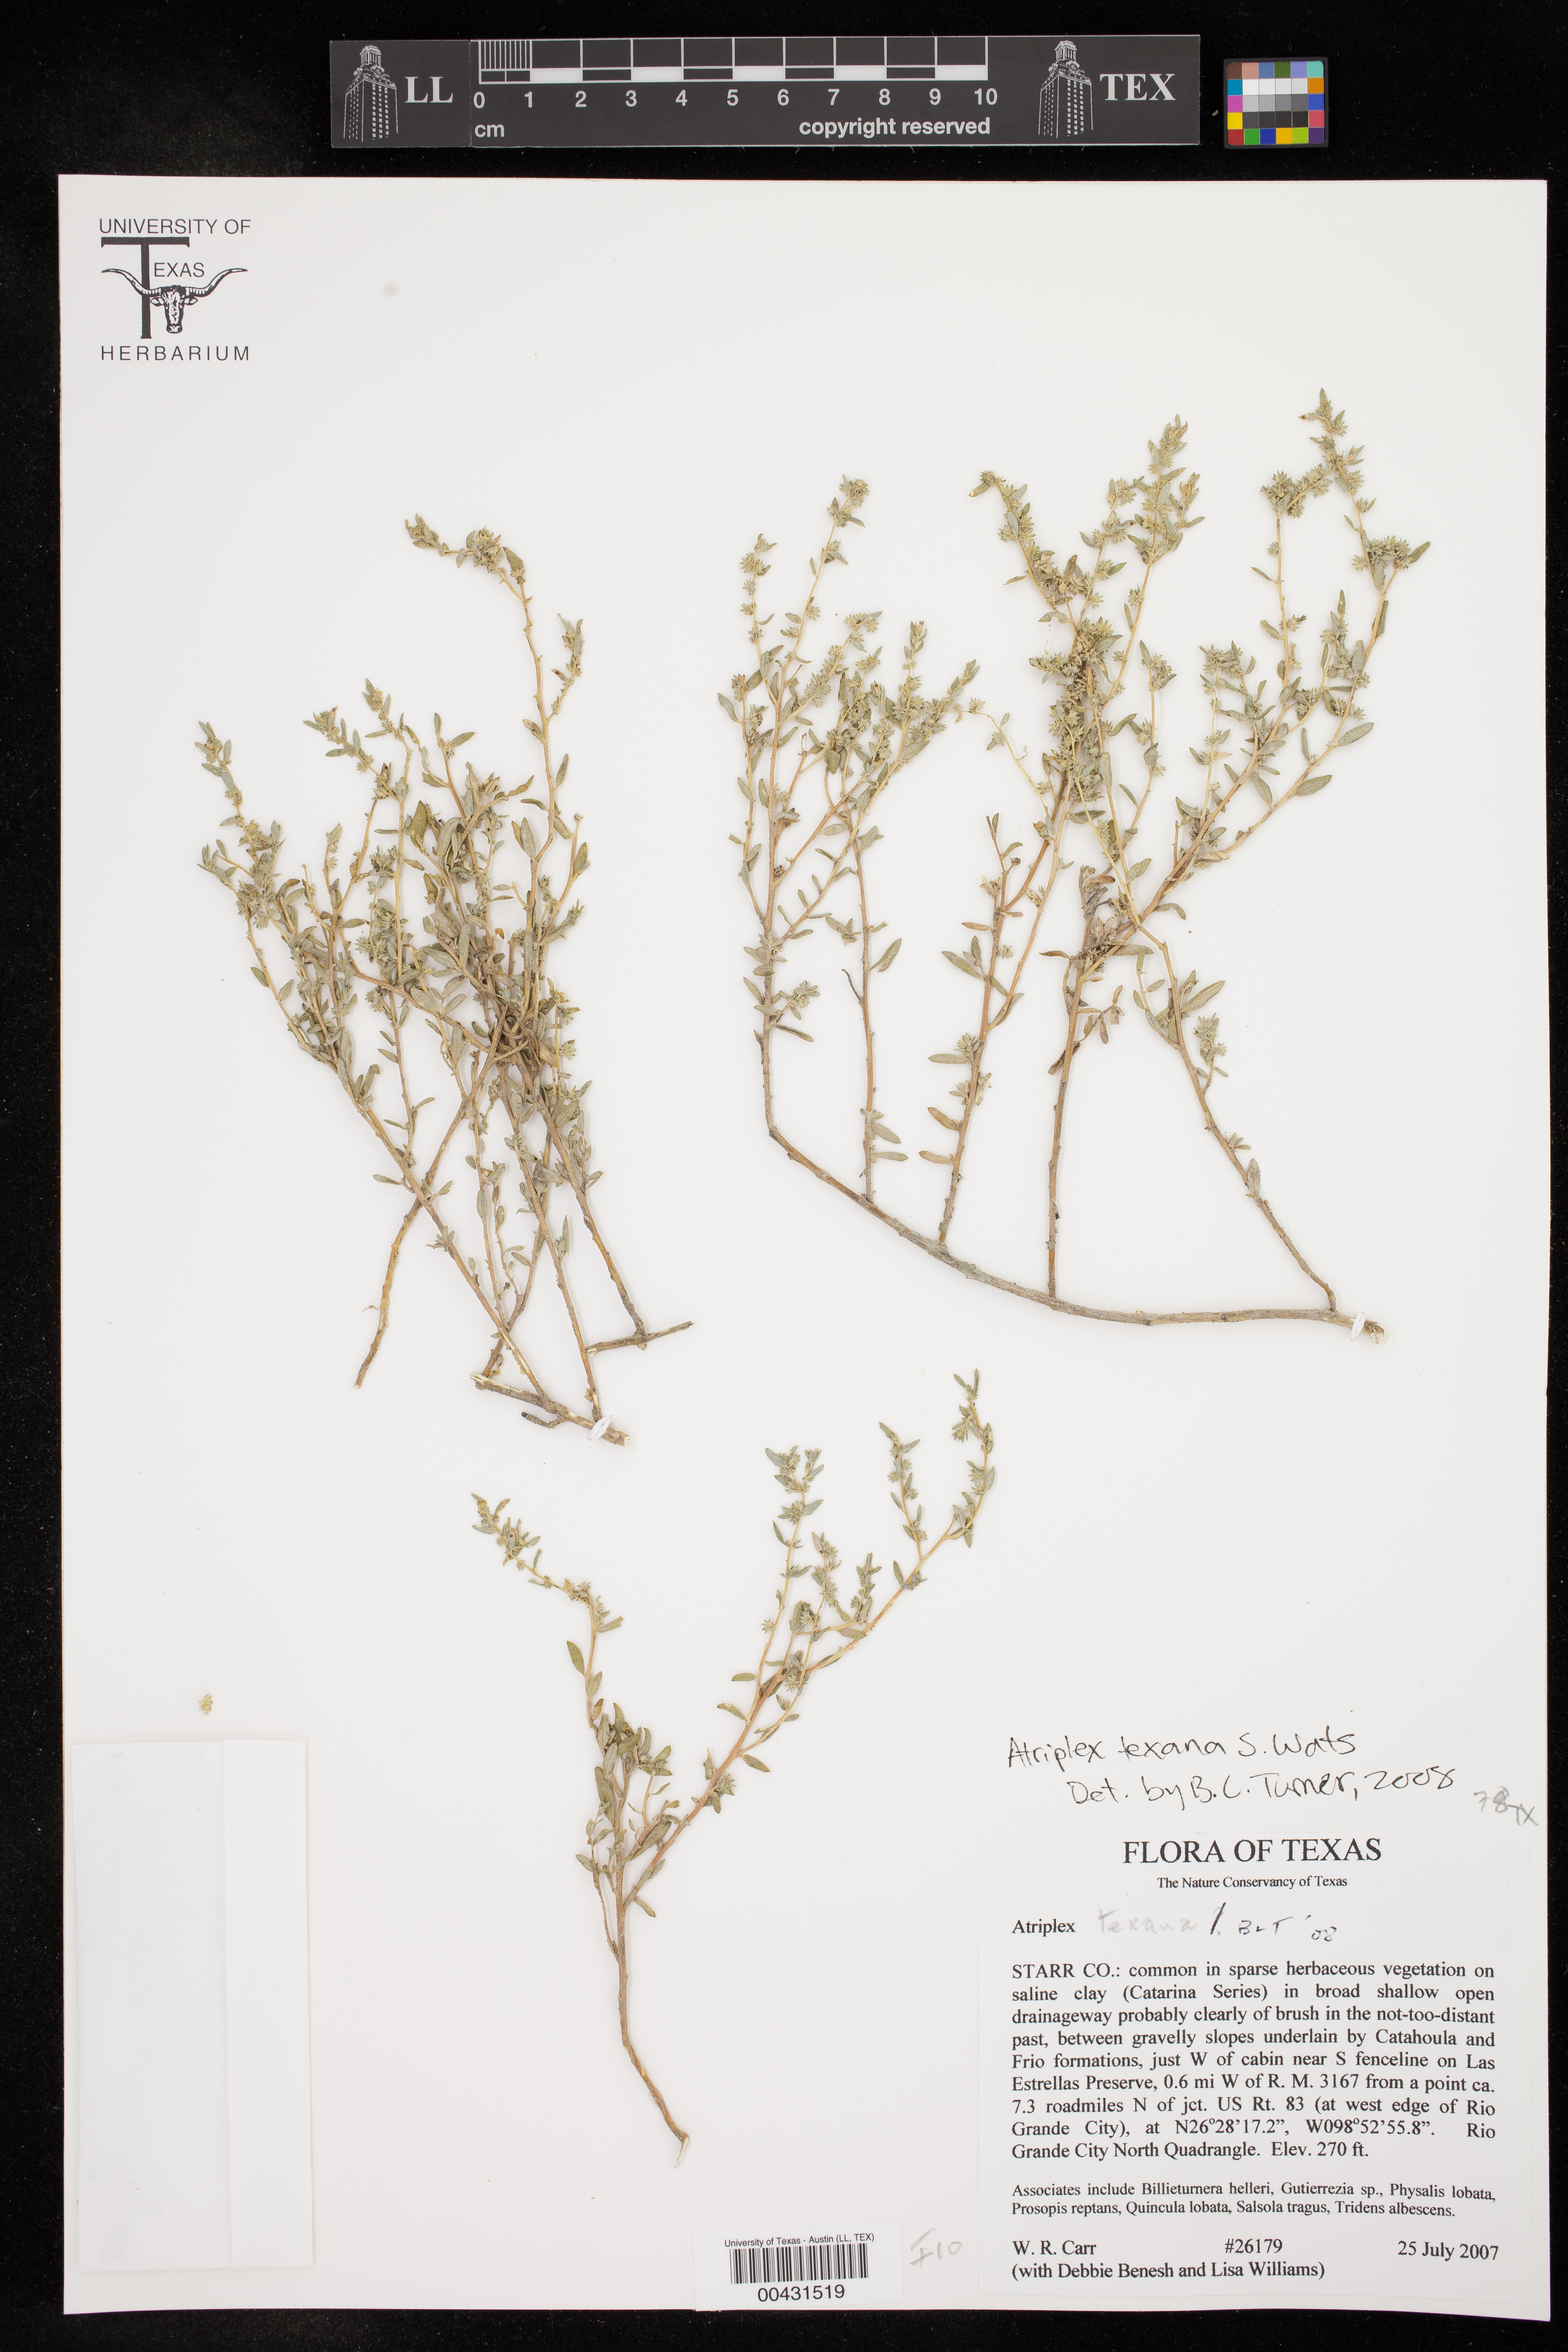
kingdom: Plantae
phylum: Tracheophyta
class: Magnoliopsida
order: Caryophyllales
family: Amaranthaceae
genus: Atriplex
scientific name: Atriplex texana
